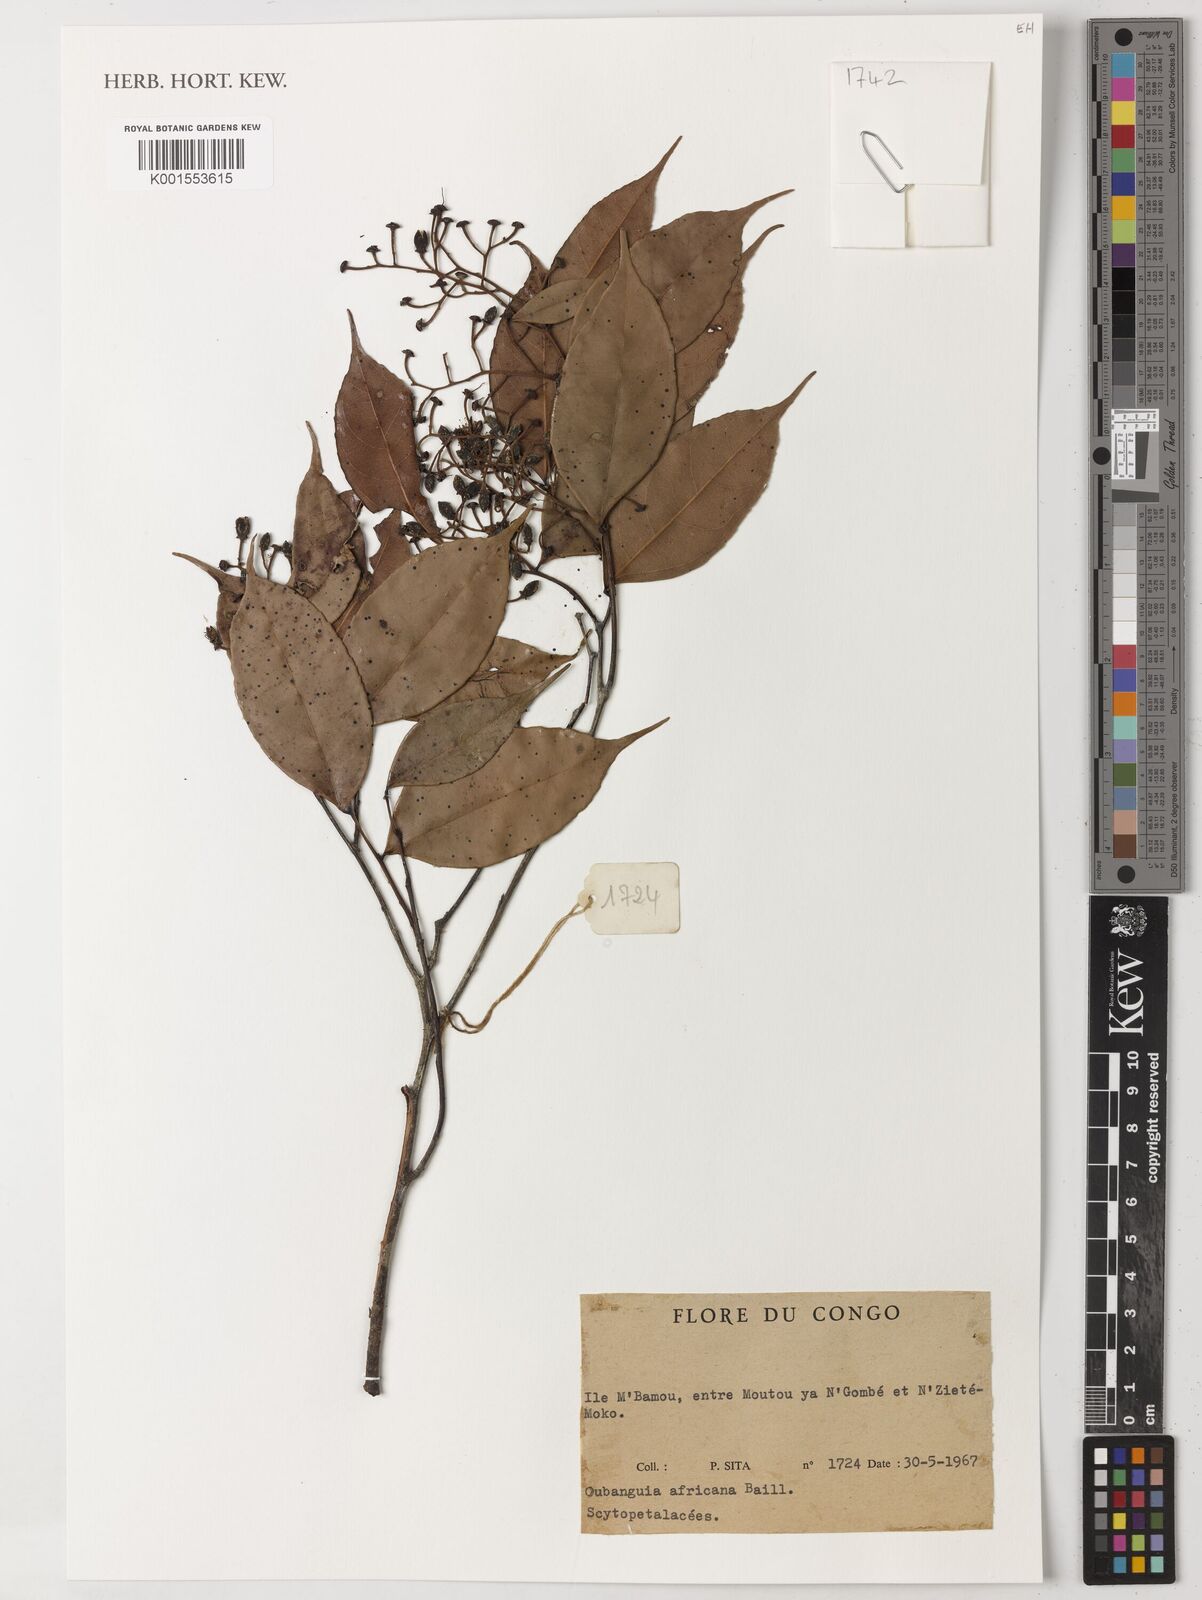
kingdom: Plantae
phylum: Tracheophyta
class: Magnoliopsida
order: Ericales
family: Lecythidaceae
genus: Oubanguia
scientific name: Oubanguia africana
